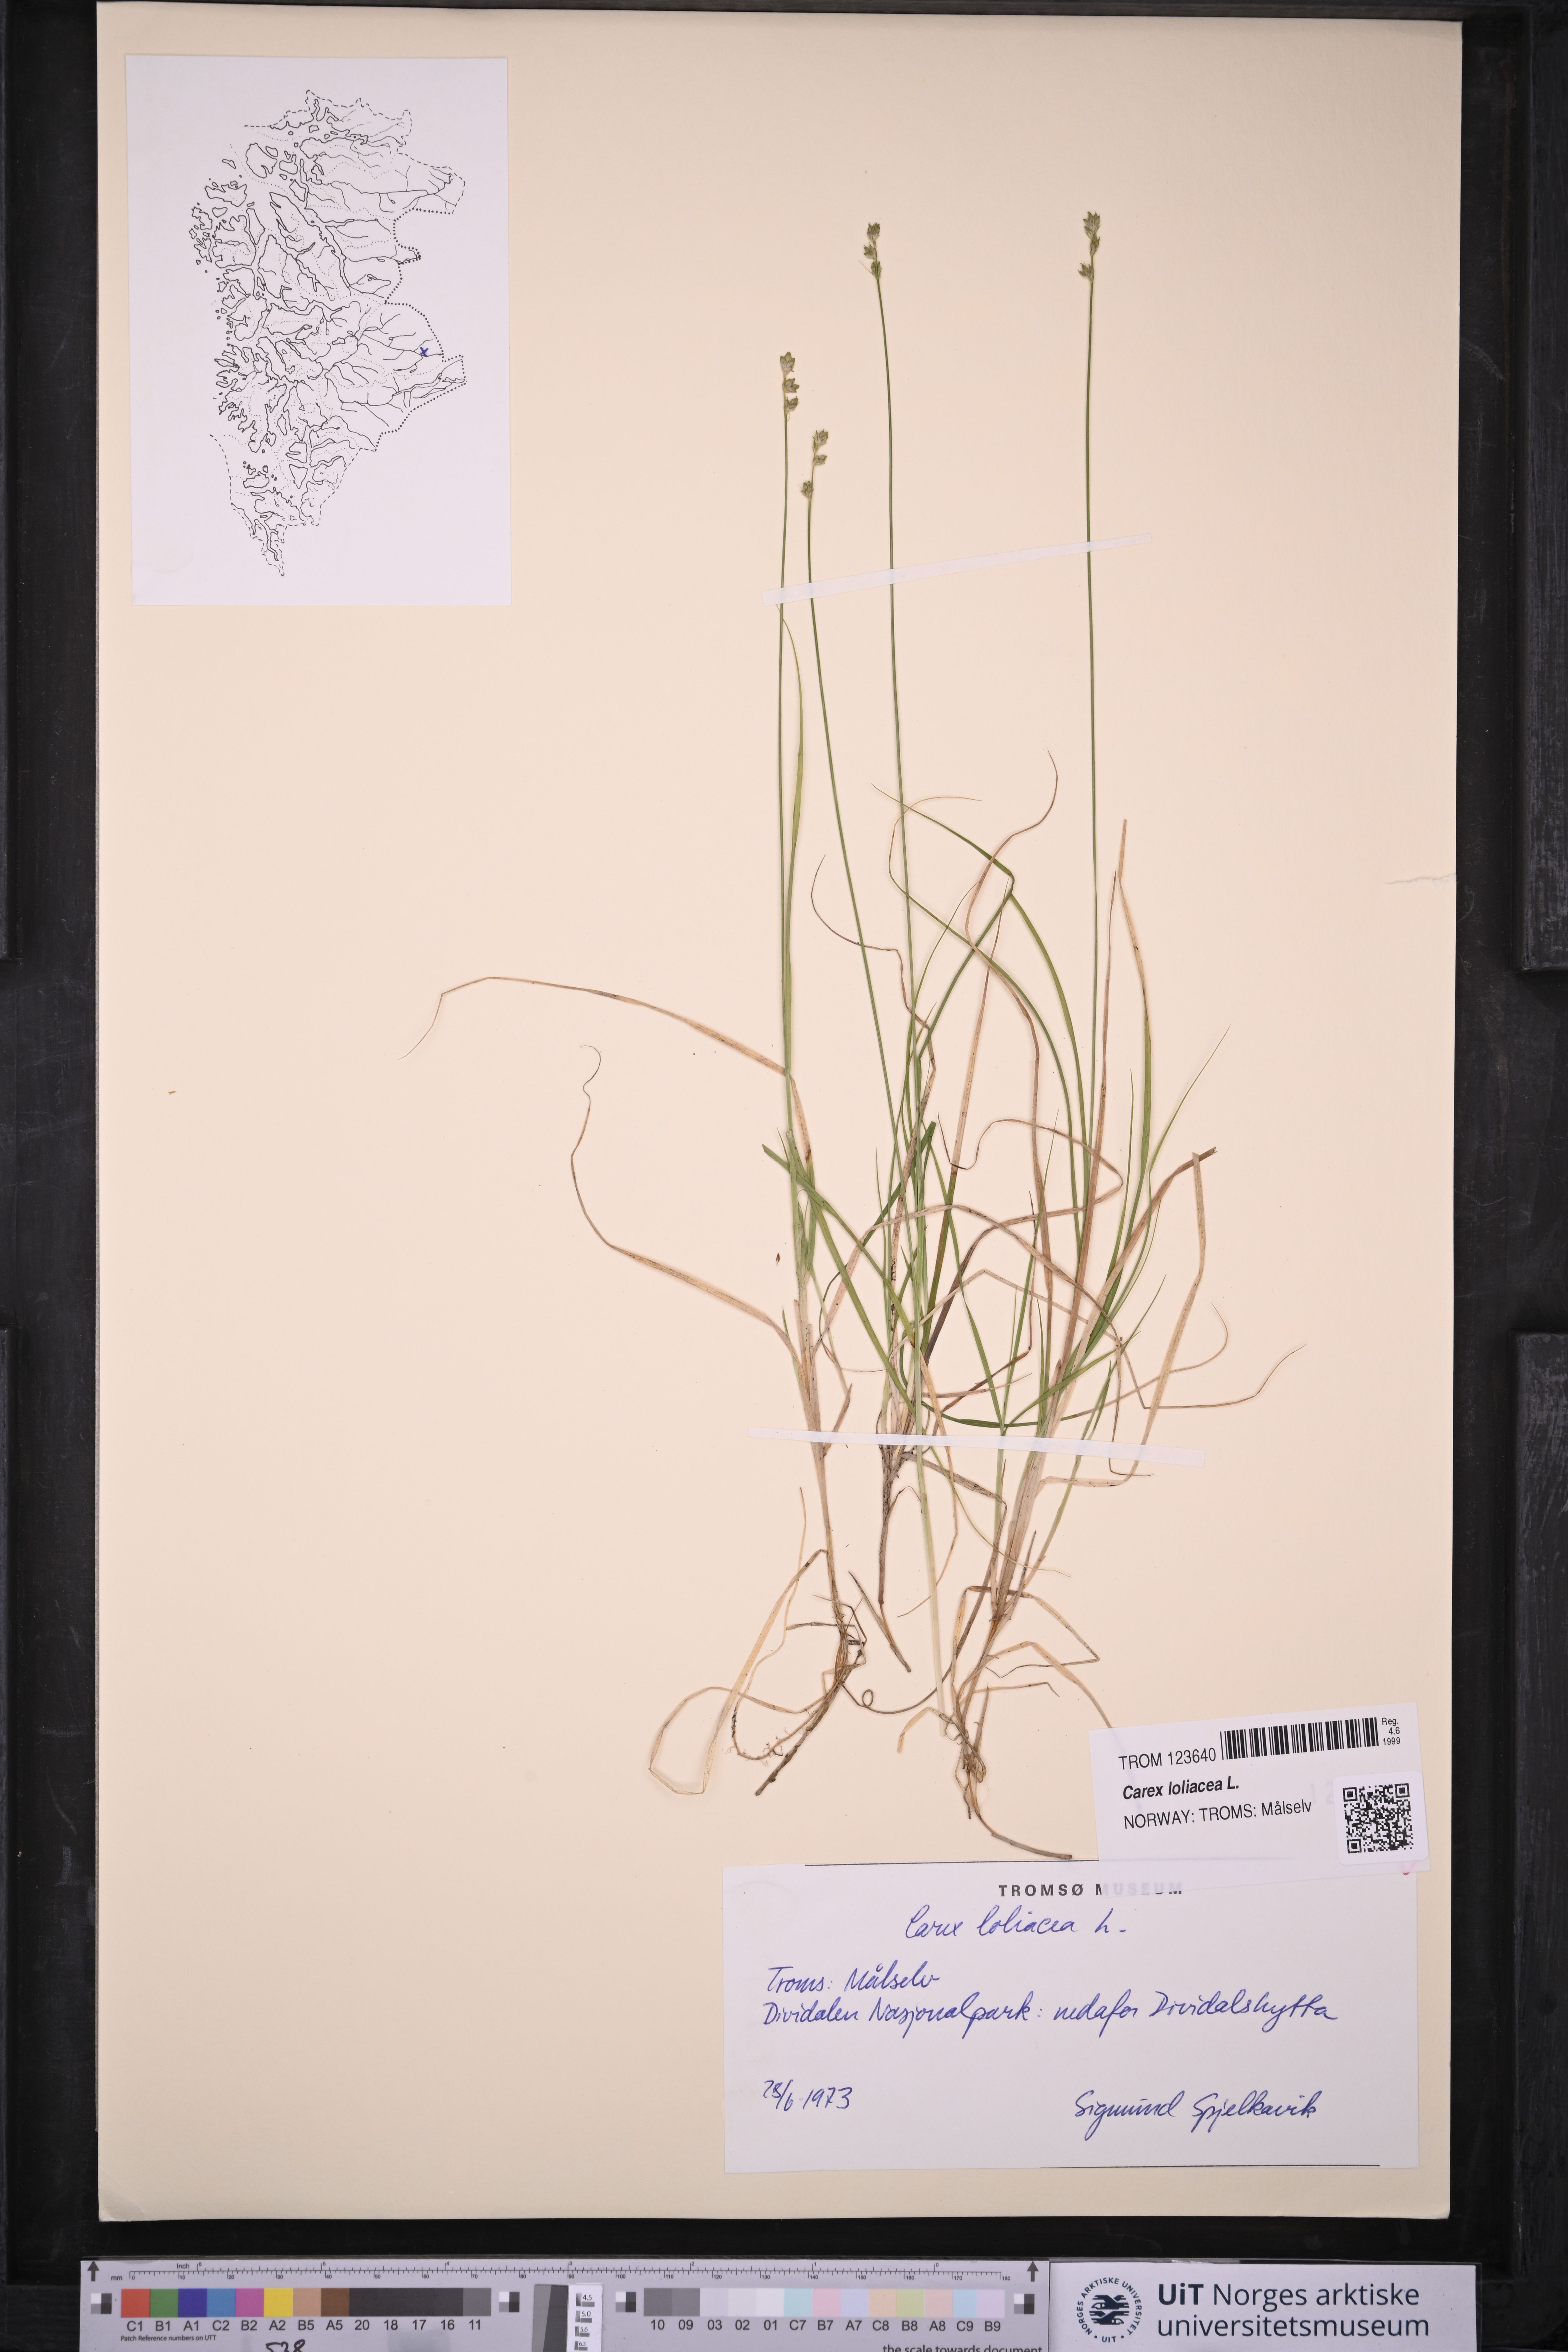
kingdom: Plantae
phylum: Tracheophyta
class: Liliopsida
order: Poales
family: Cyperaceae
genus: Carex
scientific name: Carex loliacea
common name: Ryegrass sedge
